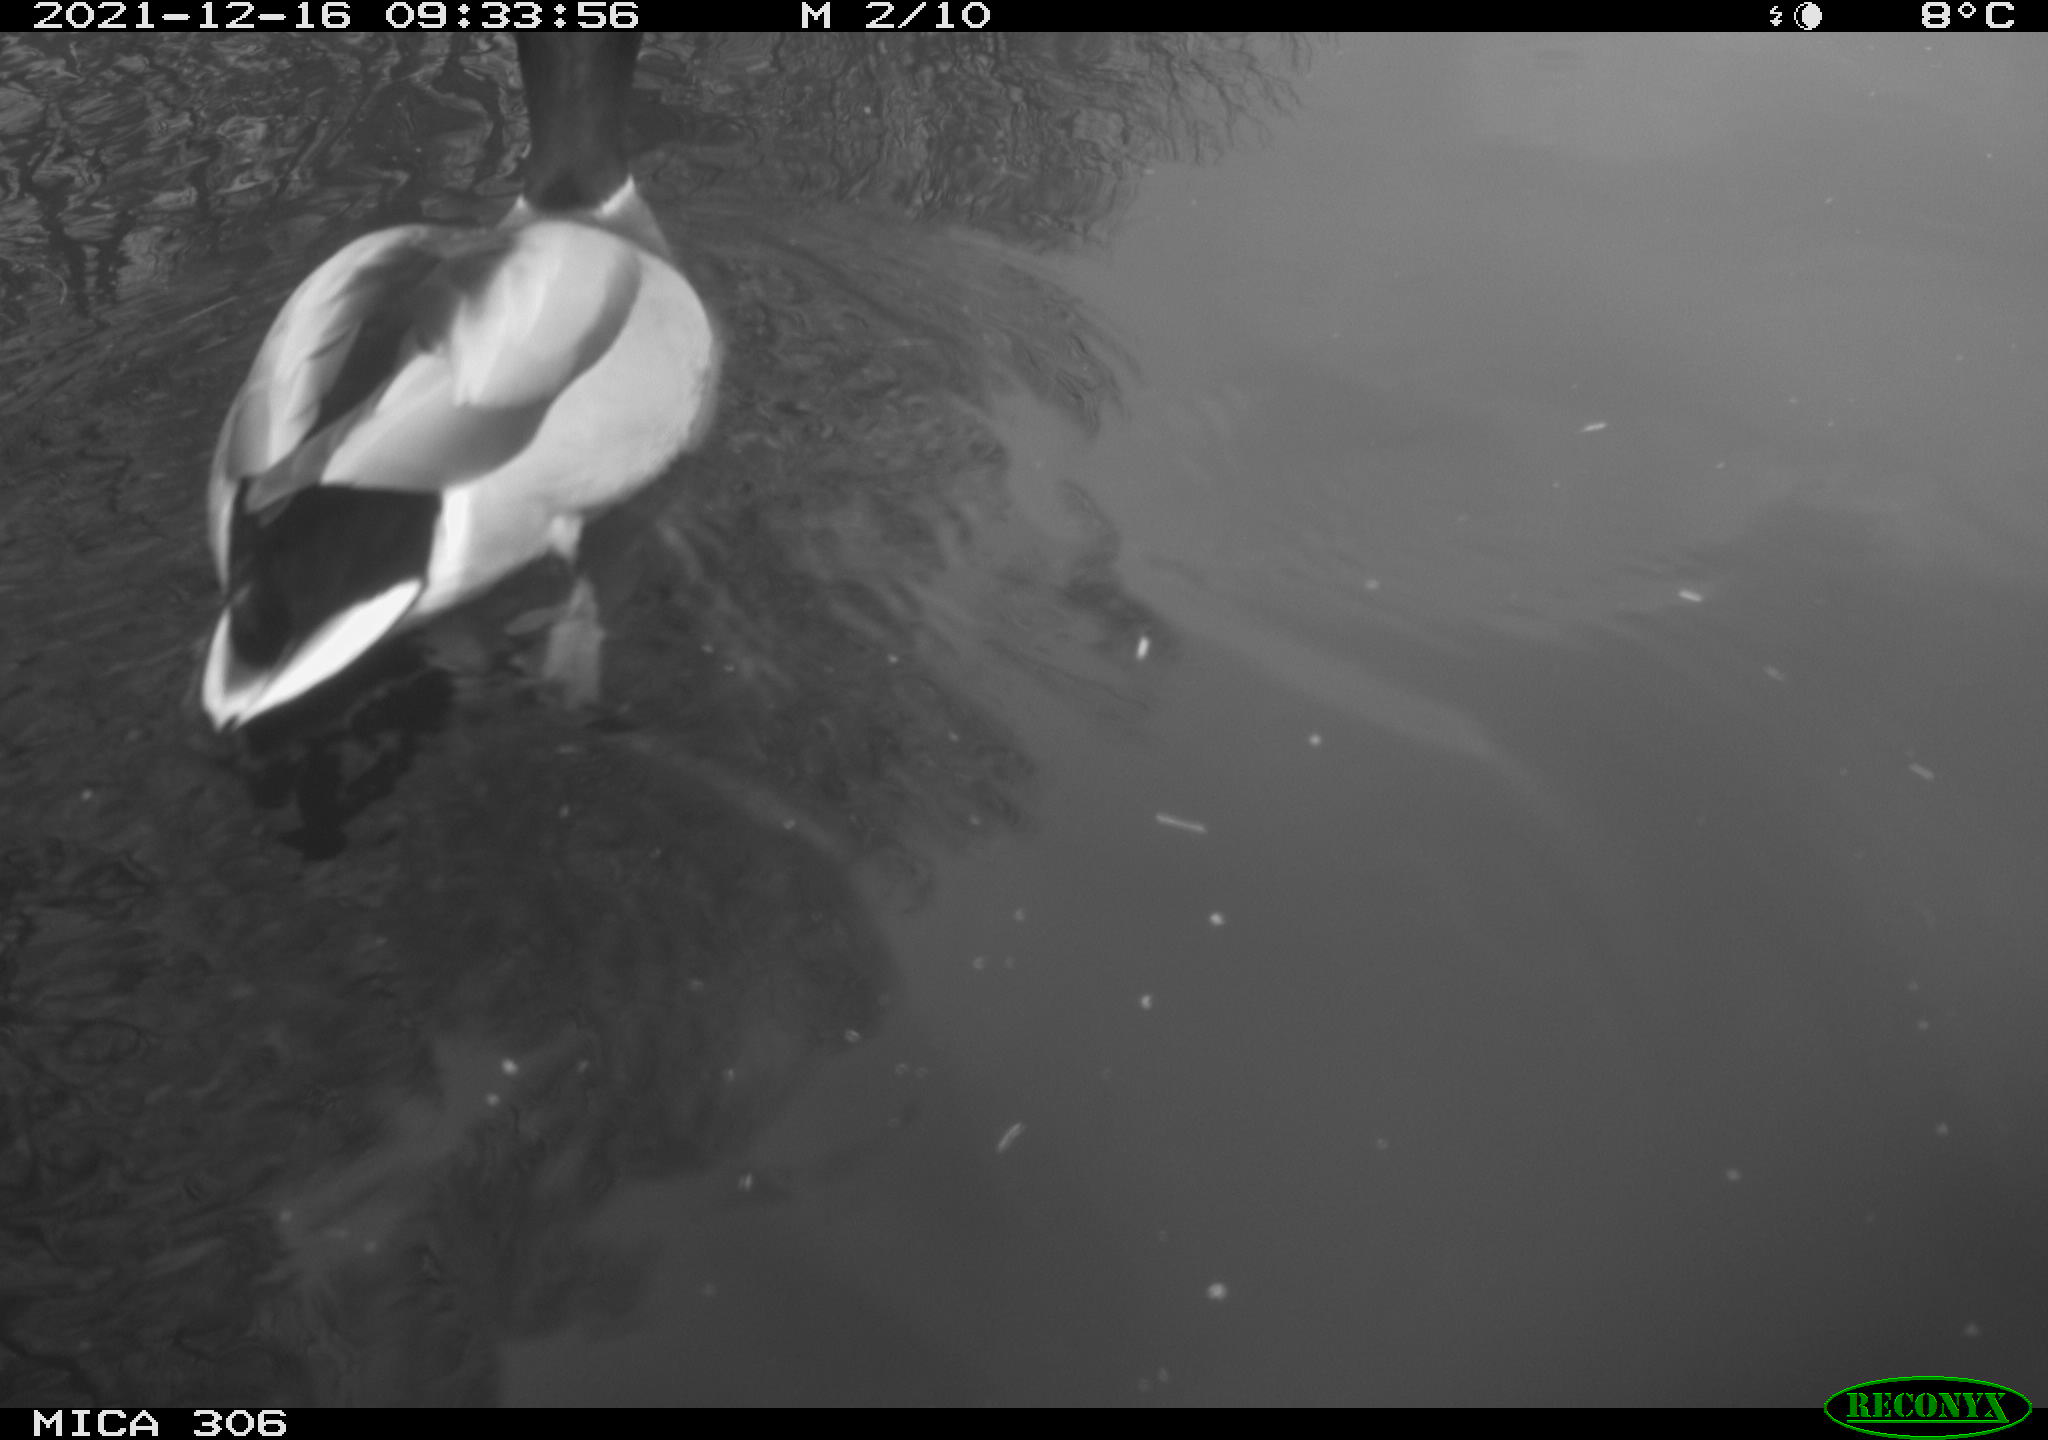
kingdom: Animalia
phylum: Chordata
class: Aves
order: Anseriformes
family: Anatidae
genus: Anas
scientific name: Anas
